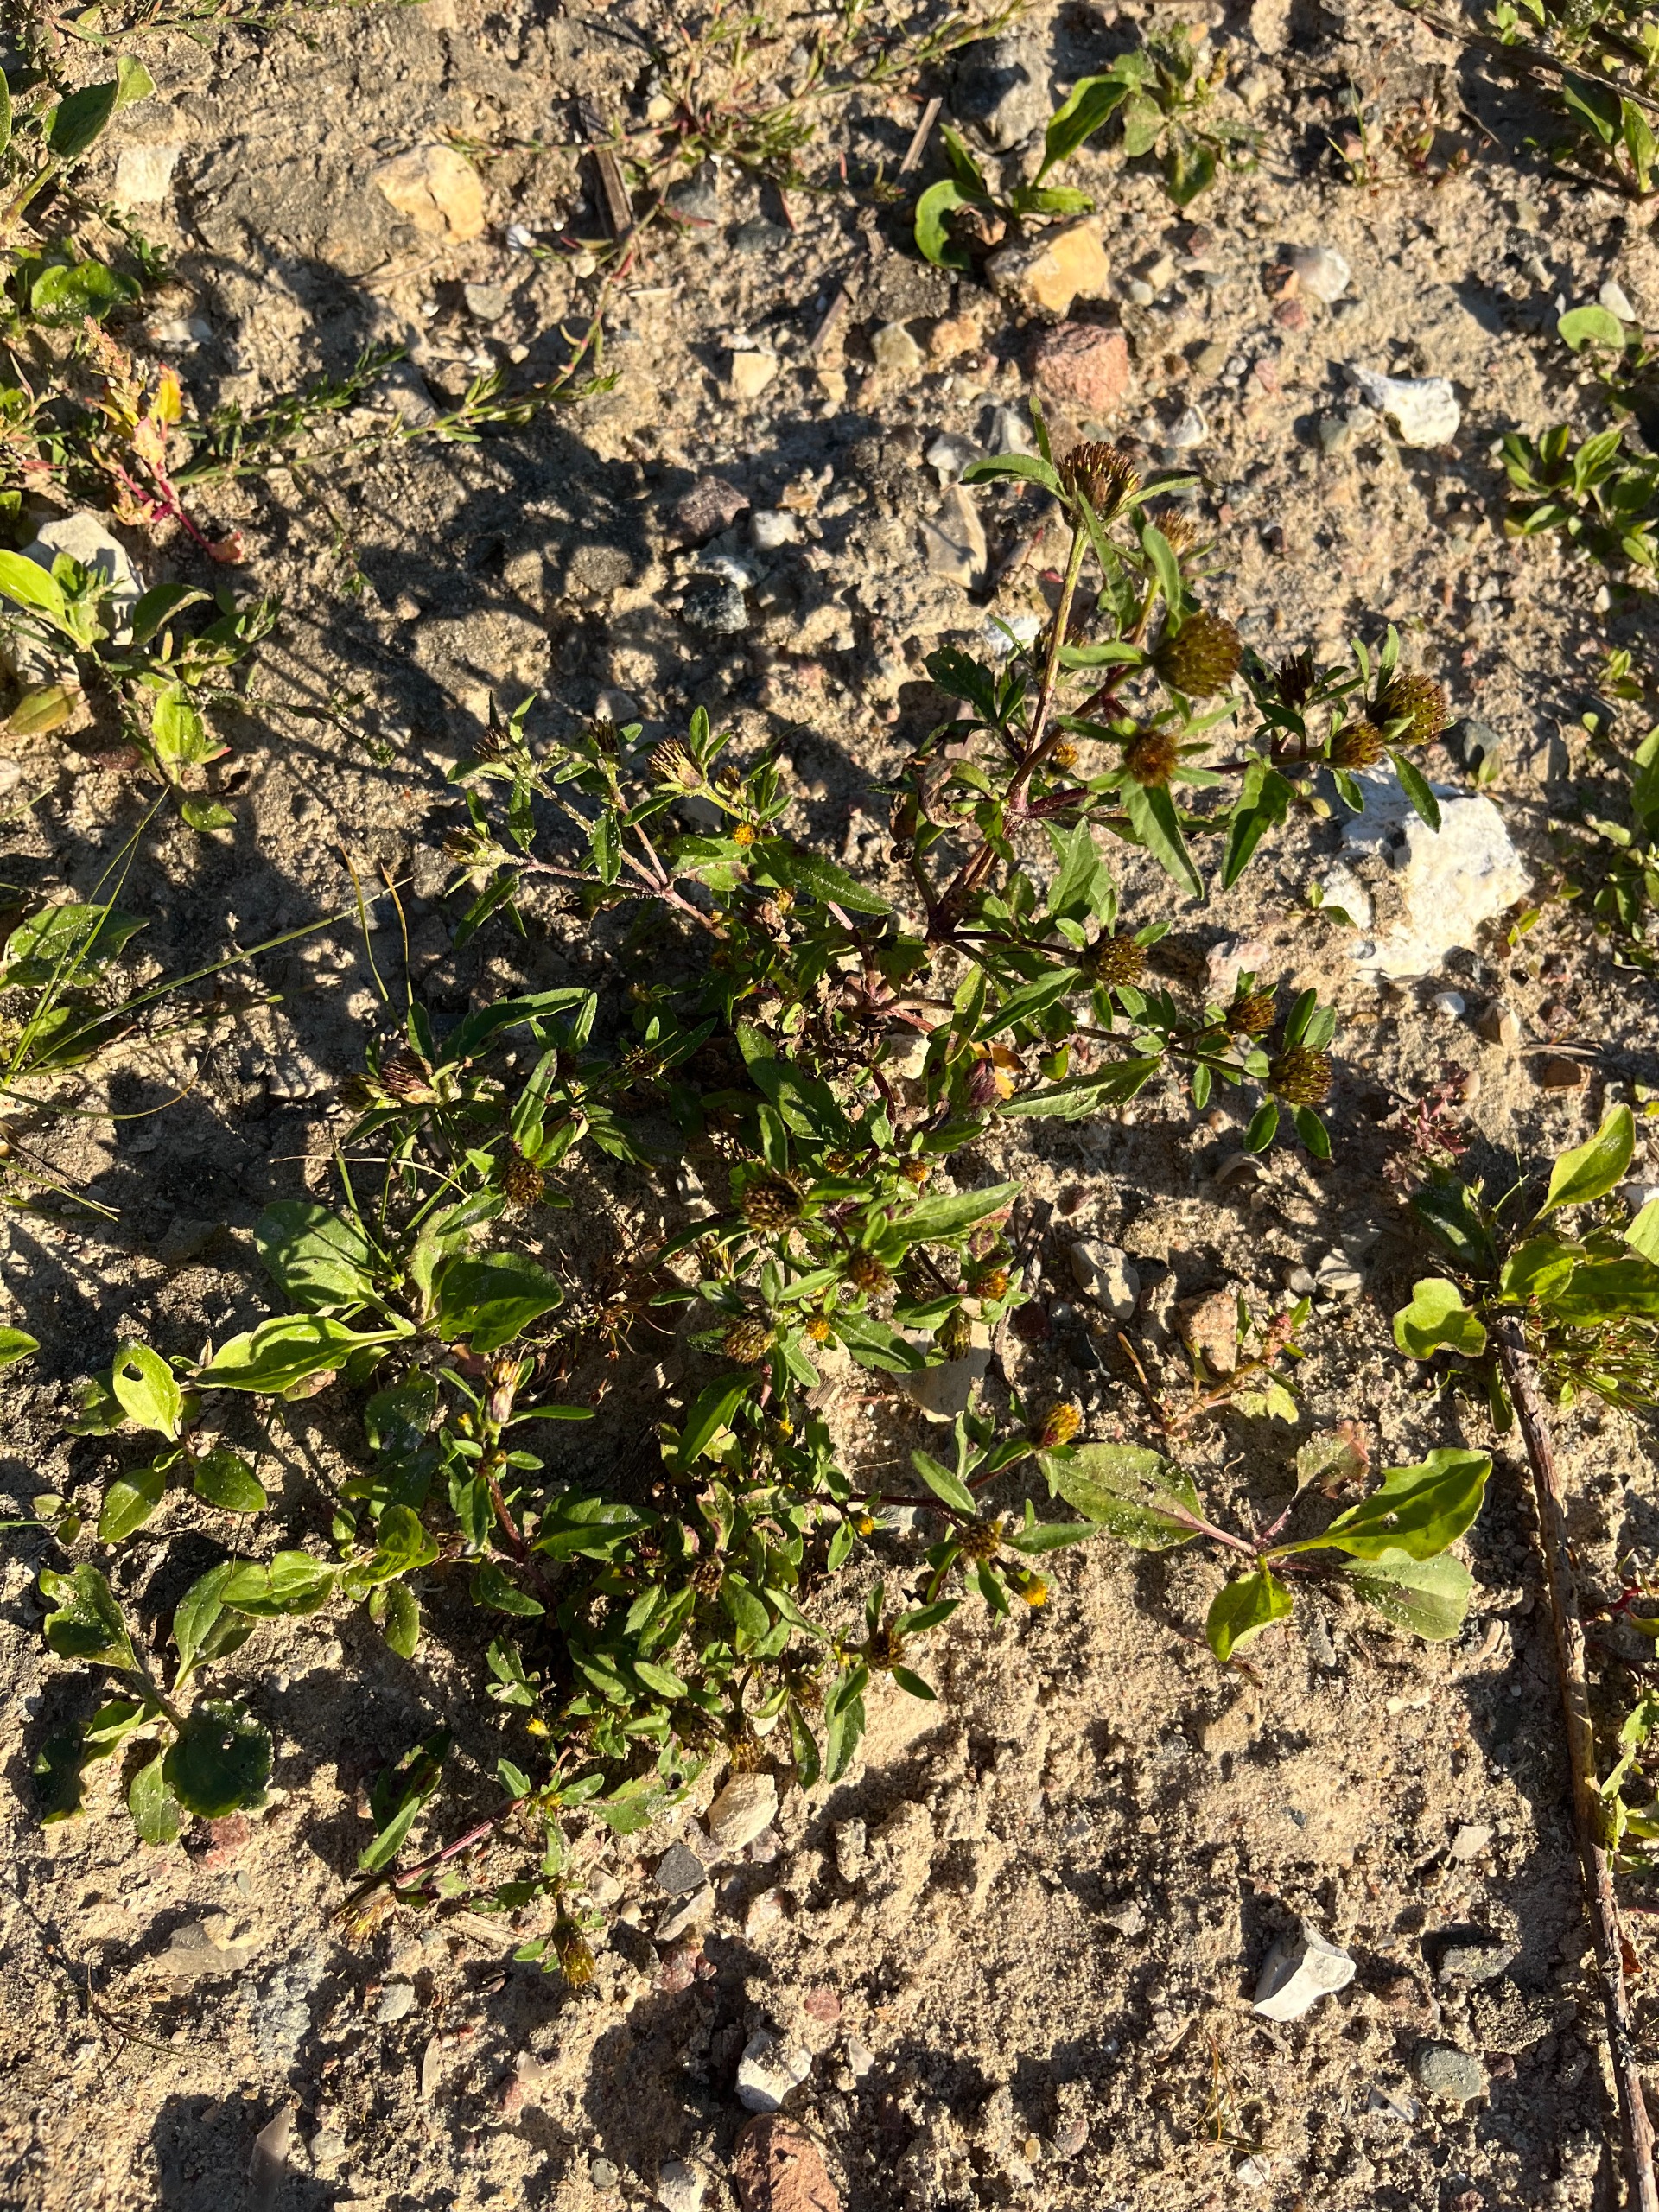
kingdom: Plantae
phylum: Tracheophyta
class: Magnoliopsida
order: Asterales
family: Asteraceae
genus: Bidens
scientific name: Bidens tripartita
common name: Fliget brøndsel
